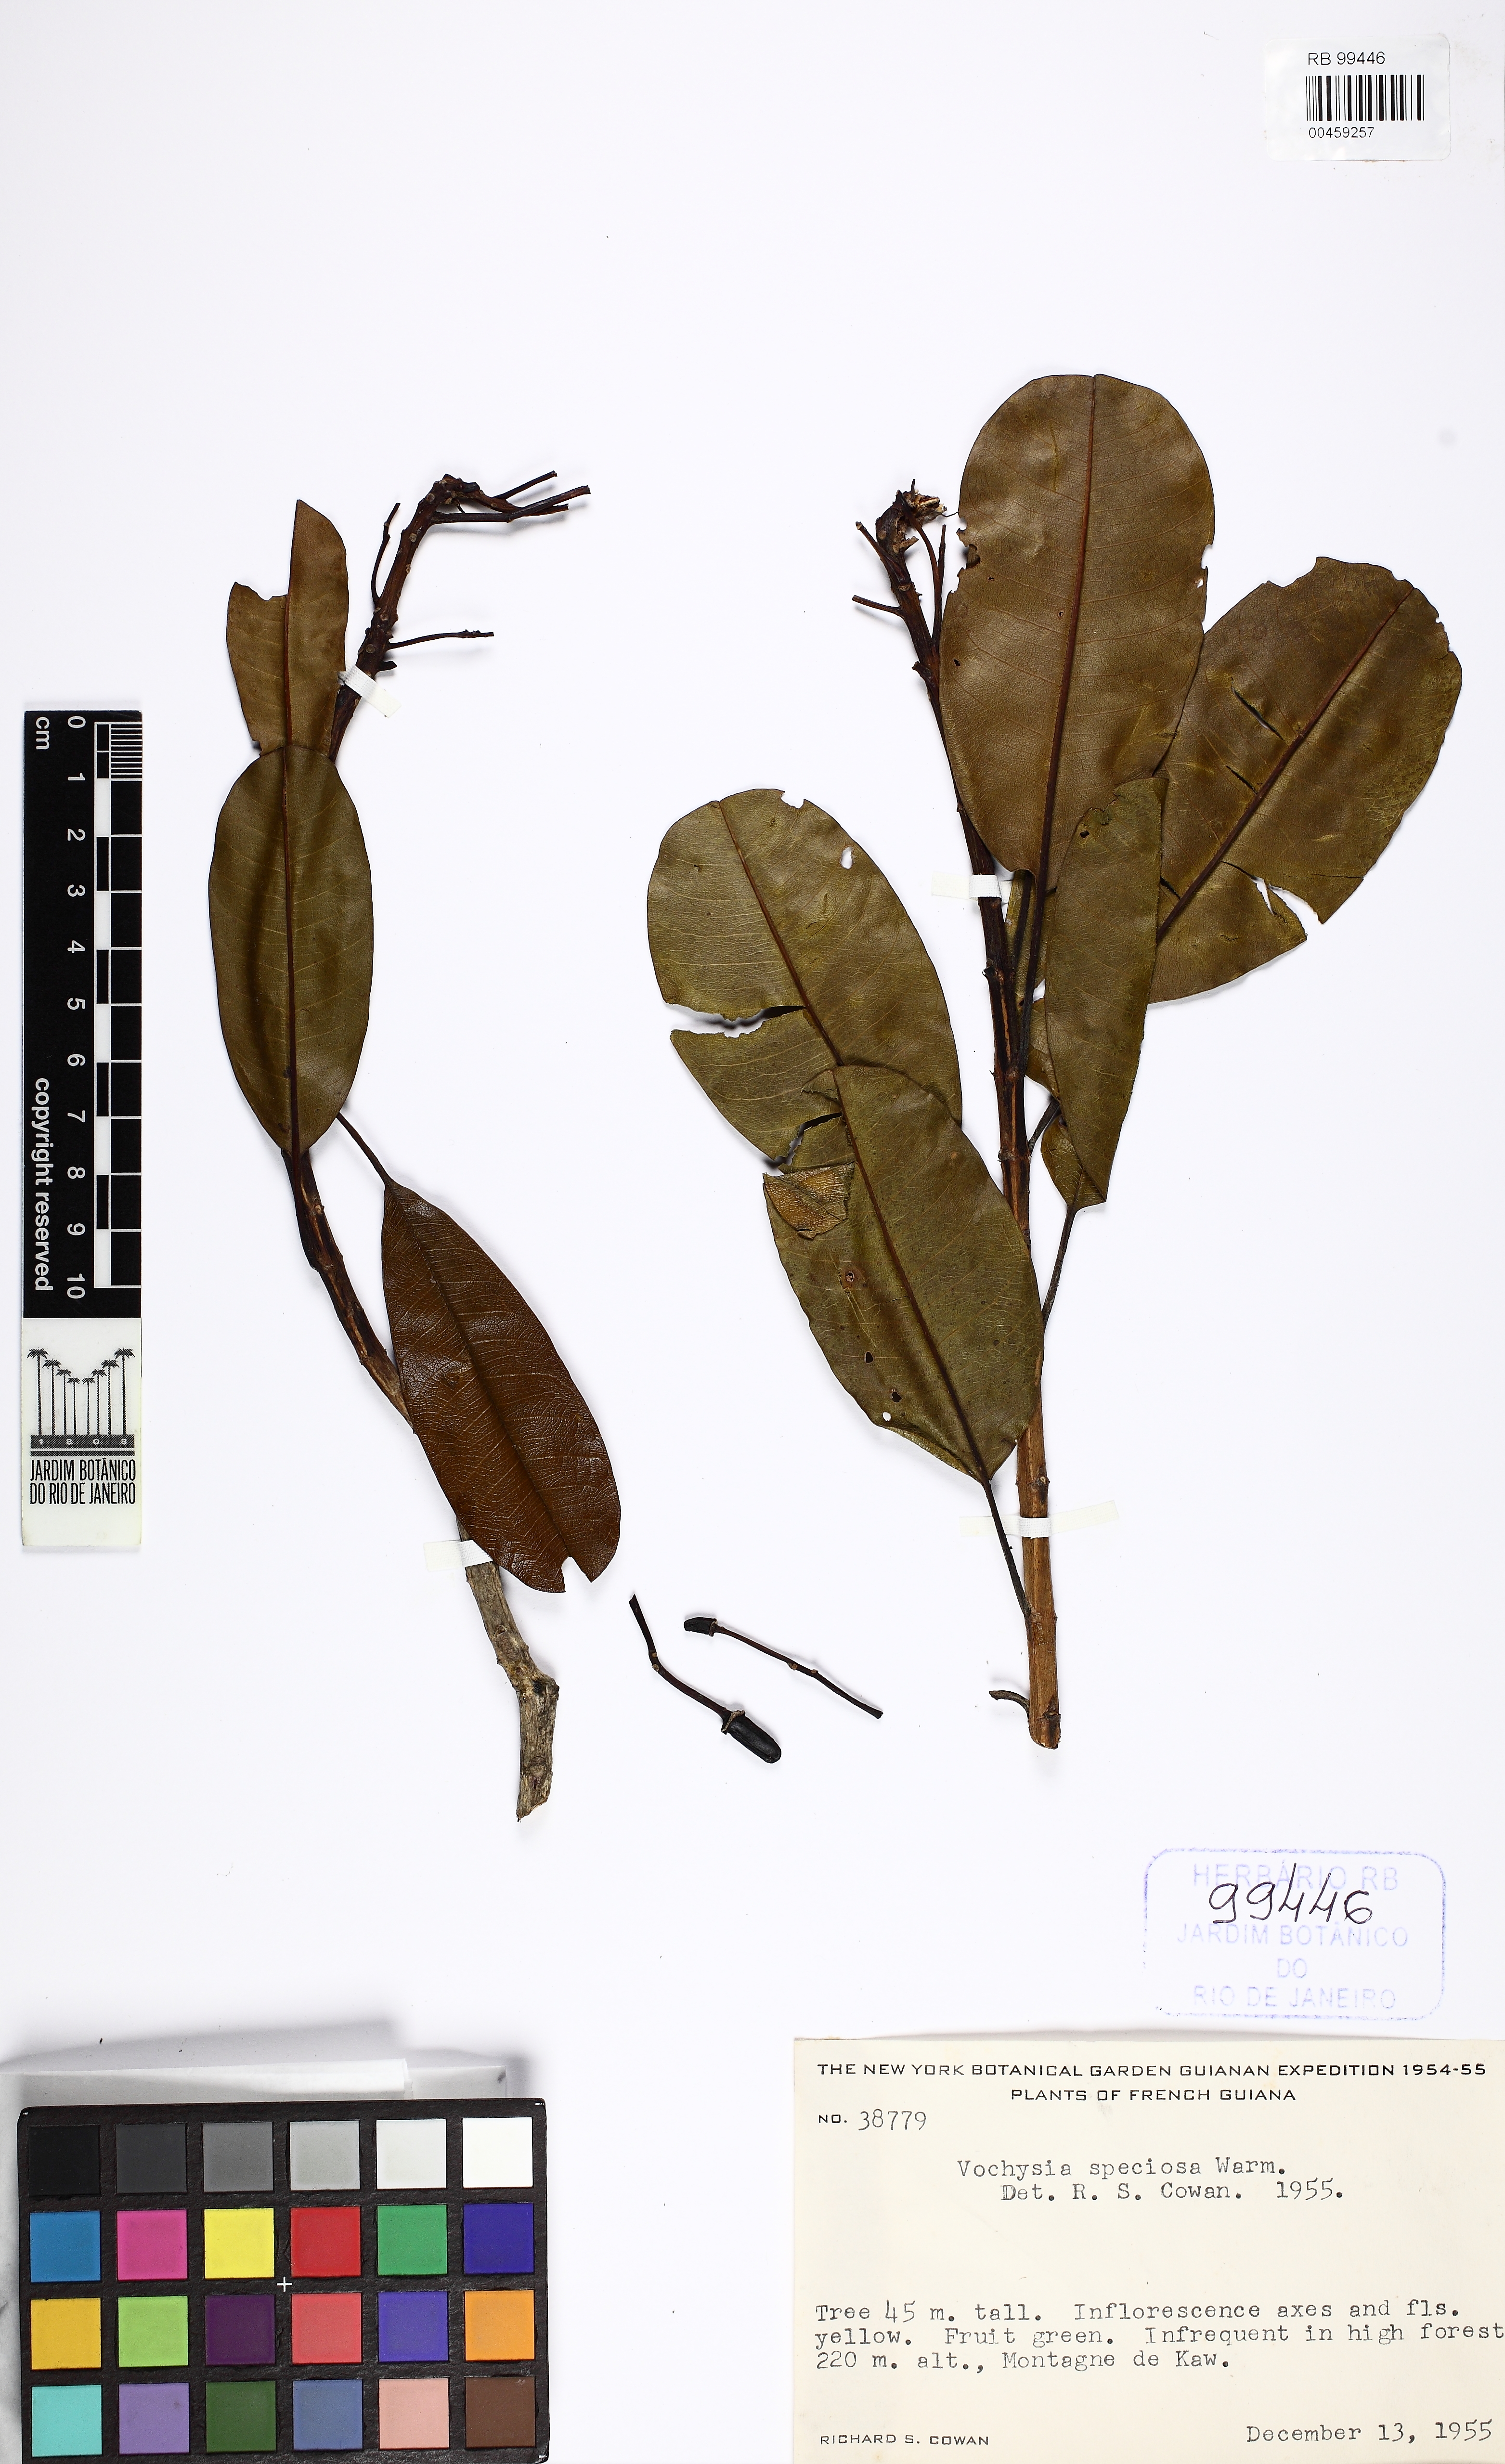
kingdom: Plantae
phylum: Tracheophyta
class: Magnoliopsida
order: Myrtales
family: Vochysiaceae
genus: Vochysia
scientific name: Vochysia speciosa
